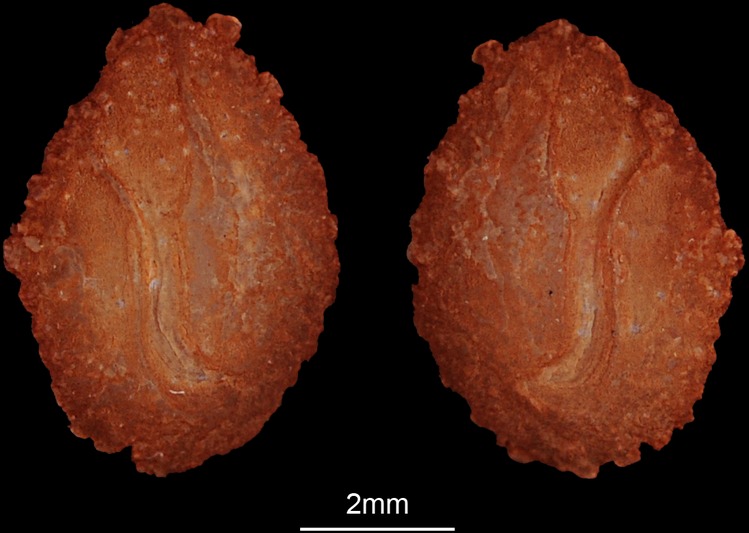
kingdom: Animalia
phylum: Chordata
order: Perciformes
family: Cichlidae
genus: Coptodon
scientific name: Coptodon zillii
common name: Redbelly tilapia
